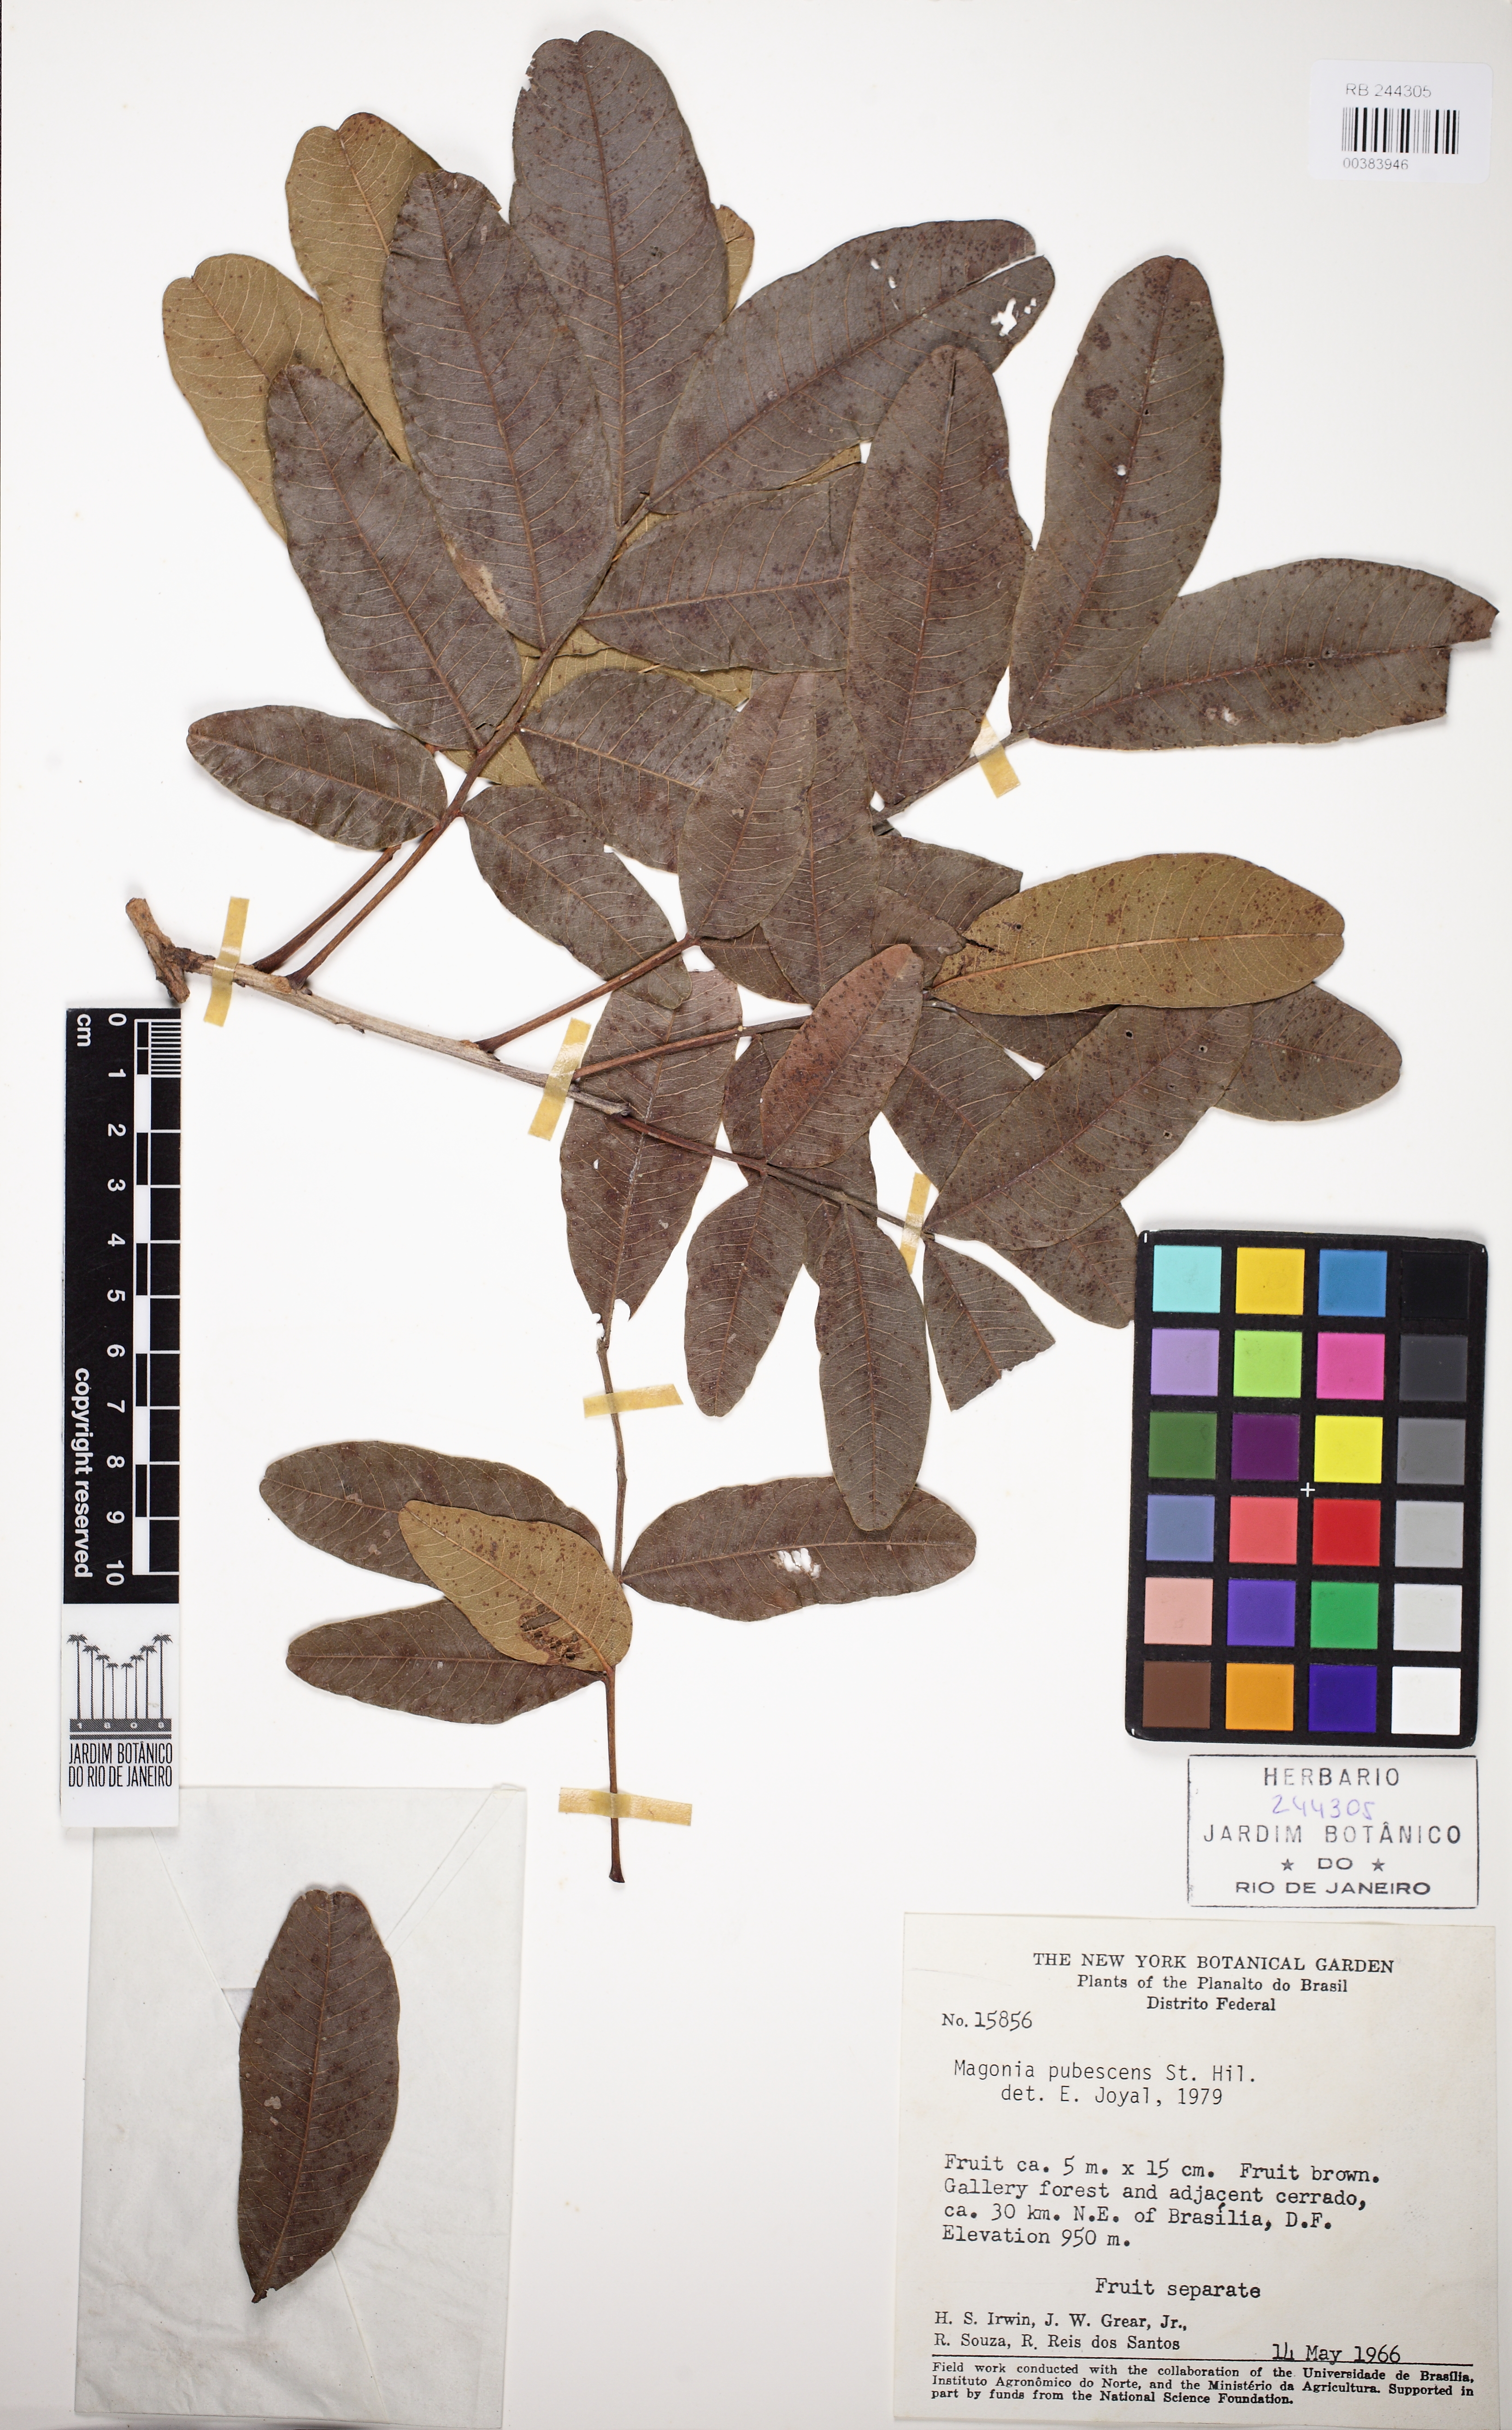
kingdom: Plantae
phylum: Tracheophyta
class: Magnoliopsida
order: Sapindales
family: Sapindaceae
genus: Magonia
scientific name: Magonia pubescens
